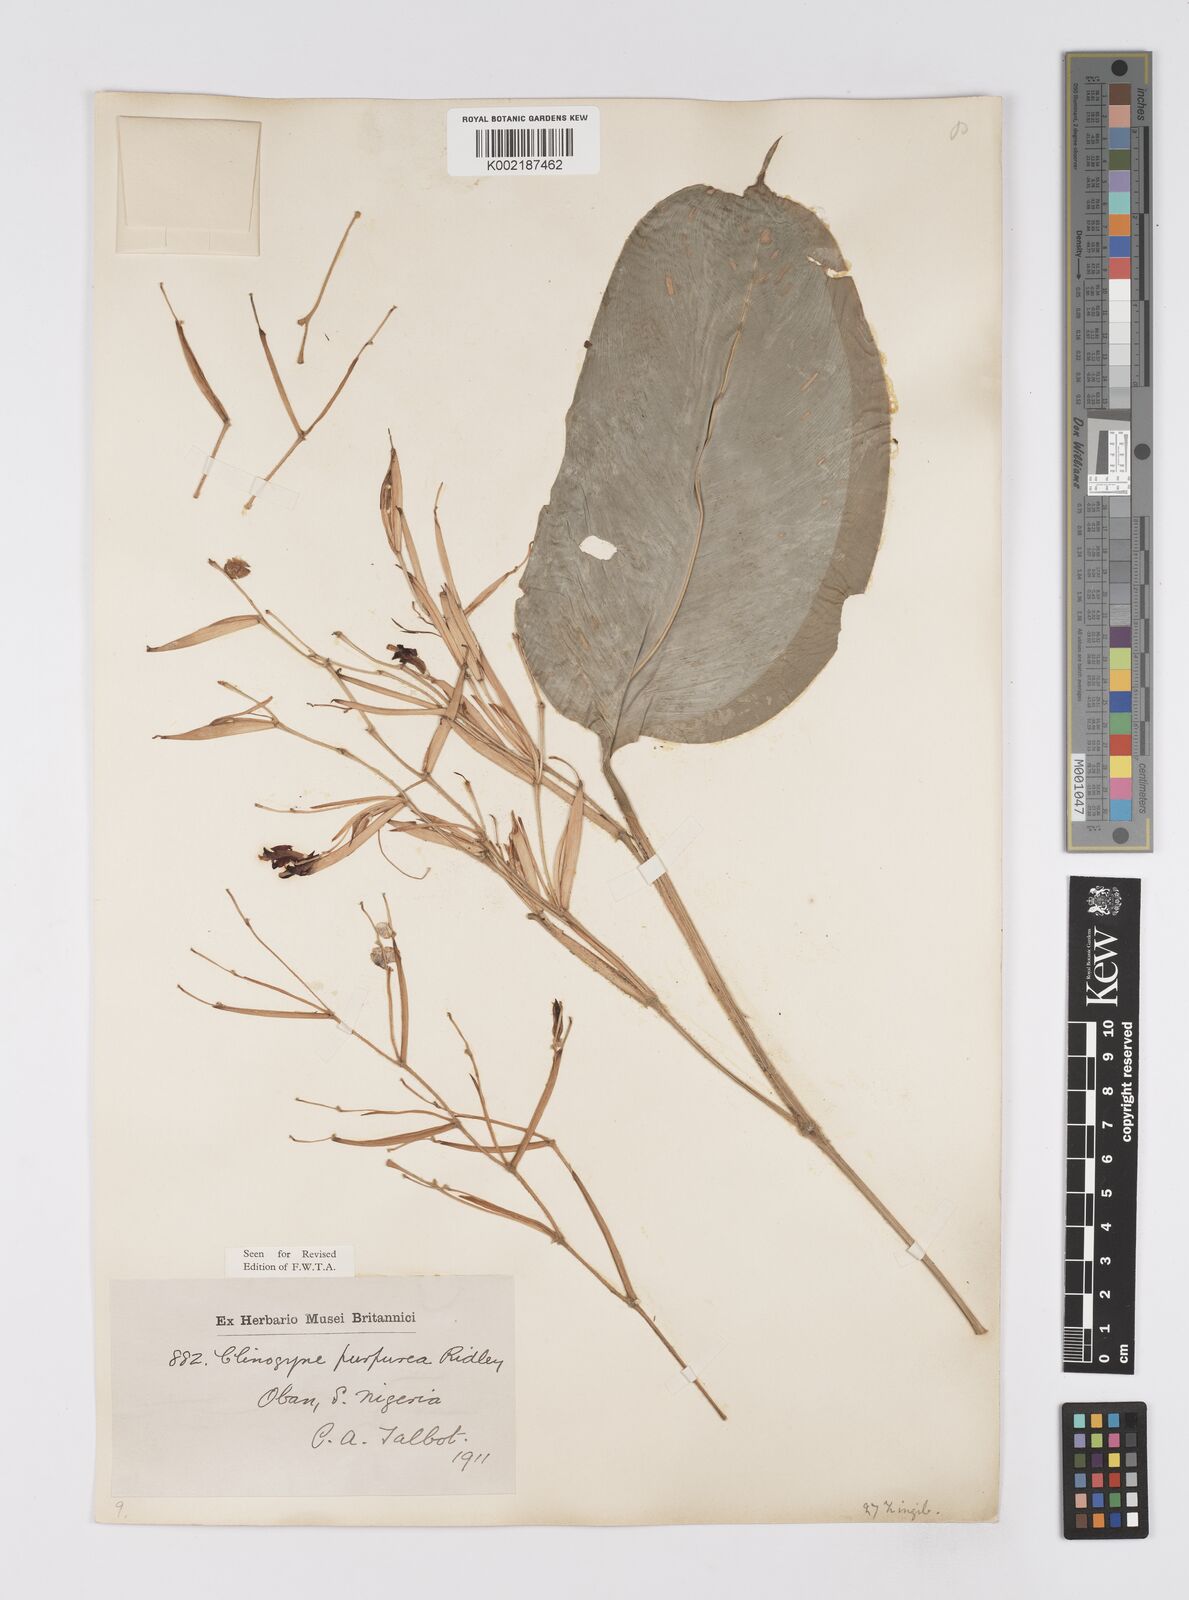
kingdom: Plantae
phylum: Tracheophyta
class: Liliopsida
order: Zingiberales
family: Marantaceae
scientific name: Marantaceae
